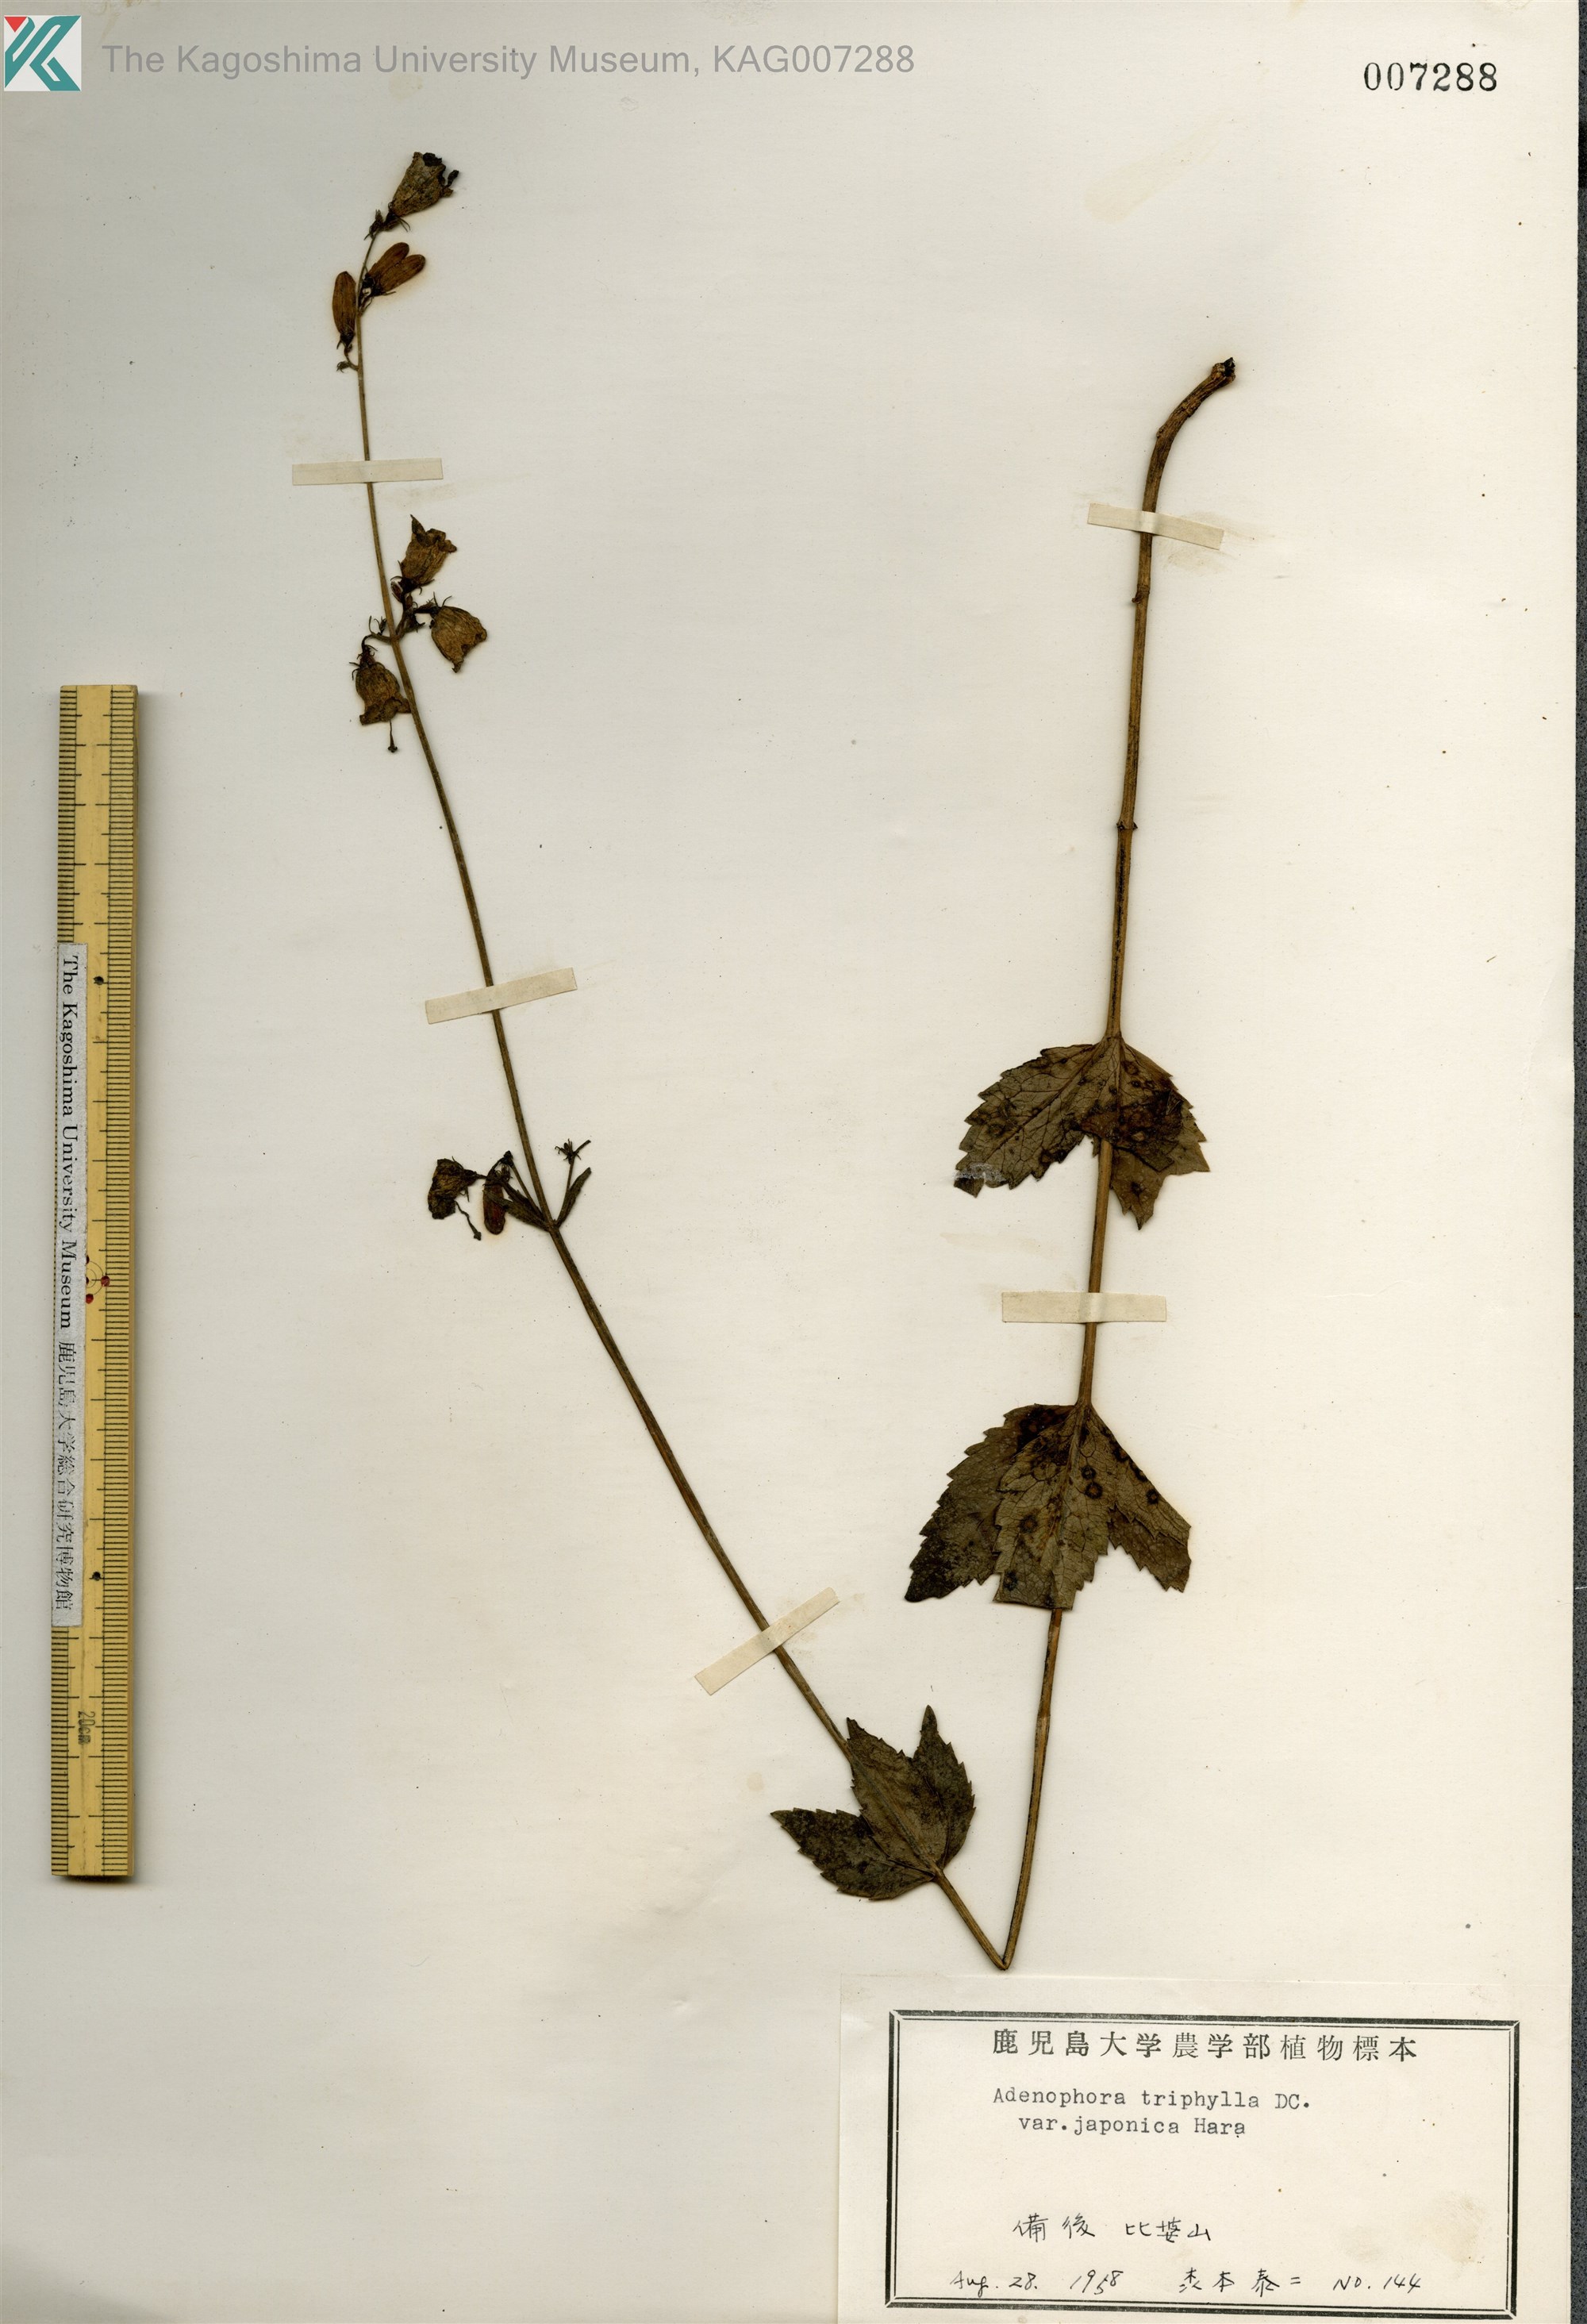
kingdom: Plantae
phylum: Tracheophyta
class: Magnoliopsida
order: Asterales
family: Campanulaceae
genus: Adenophora
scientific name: Adenophora triphylla
